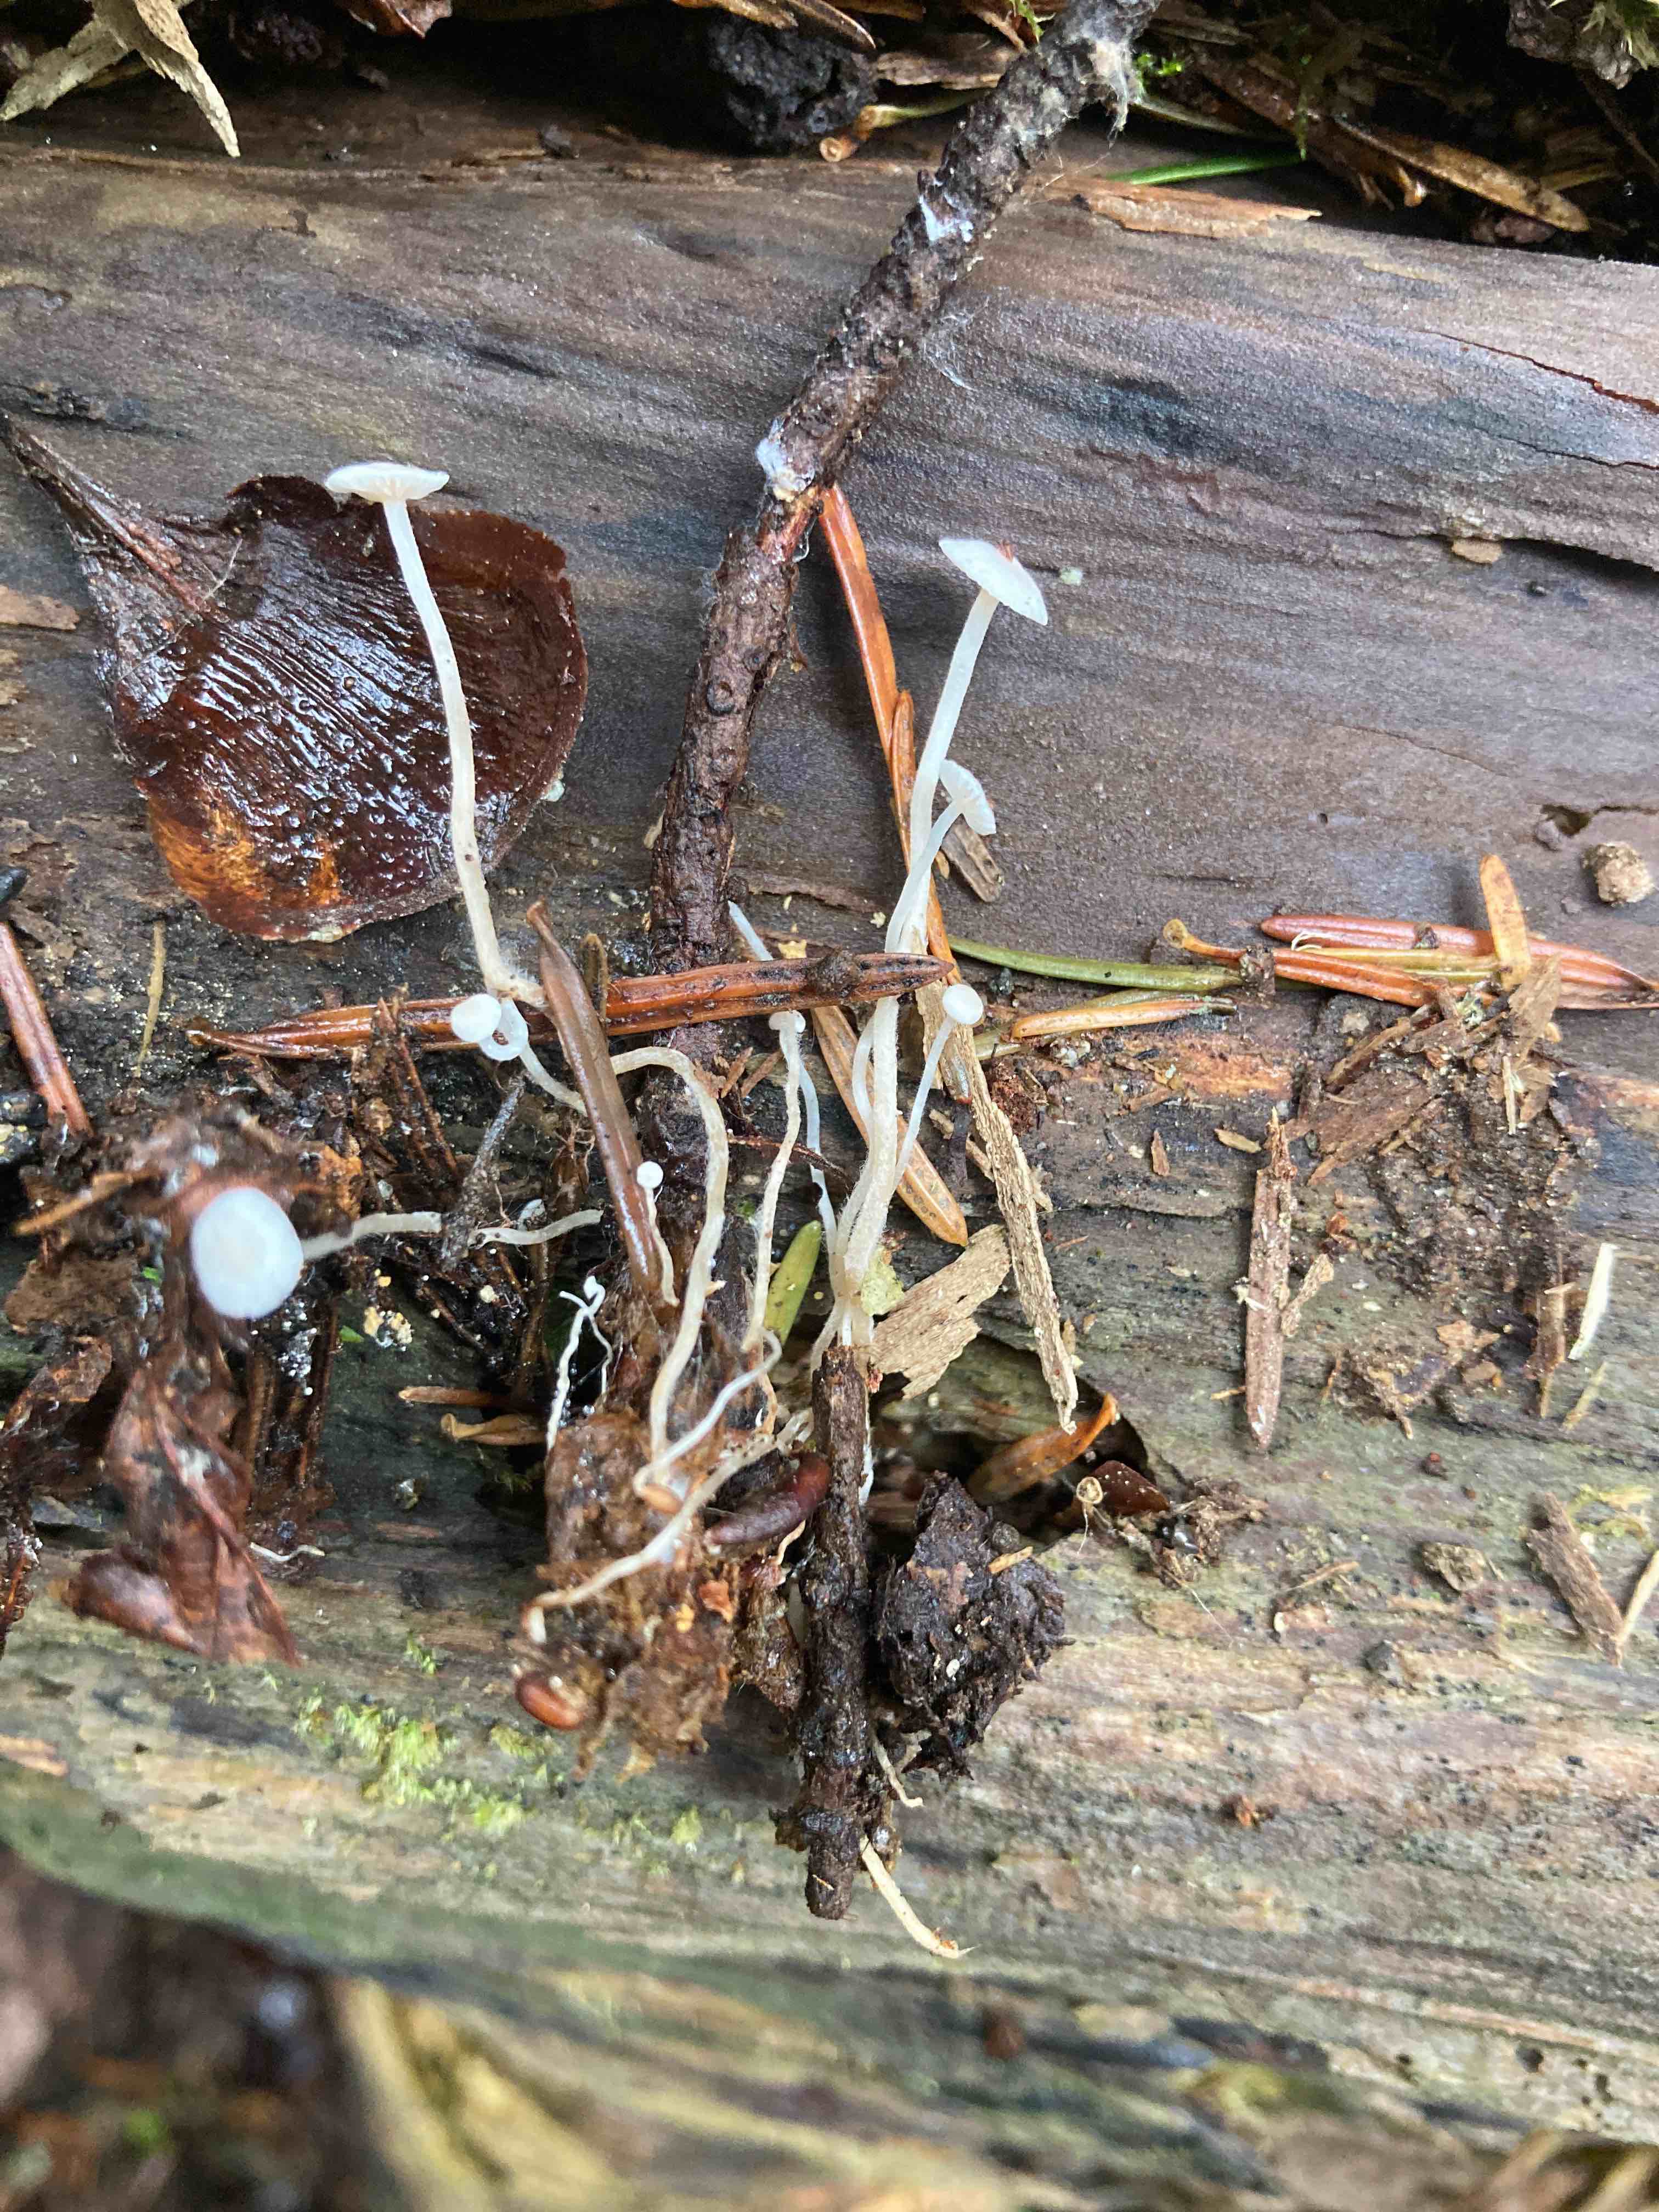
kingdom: Fungi
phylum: Basidiomycota
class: Agaricomycetes
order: Agaricales
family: Tricholomataceae
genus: Collybia
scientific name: Collybia tuberosa
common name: spidsknoldet lighat
